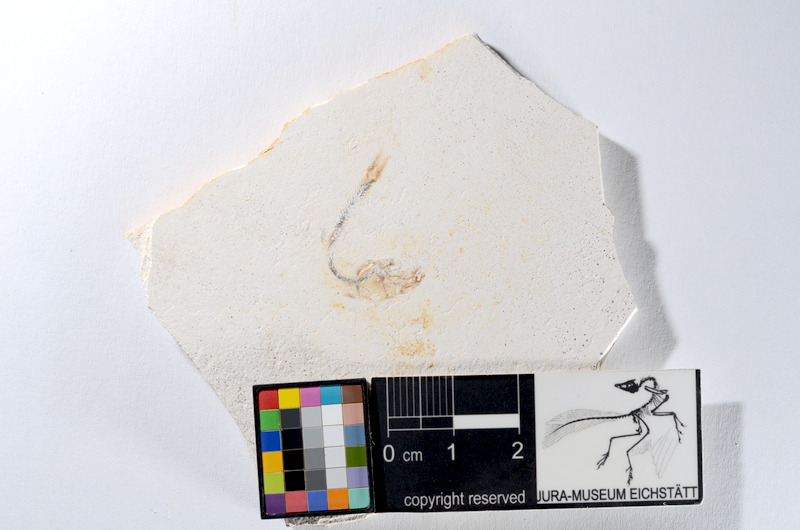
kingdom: Animalia
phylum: Chordata
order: Salmoniformes
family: Orthogonikleithridae
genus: Orthogonikleithrus
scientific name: Orthogonikleithrus hoelli
